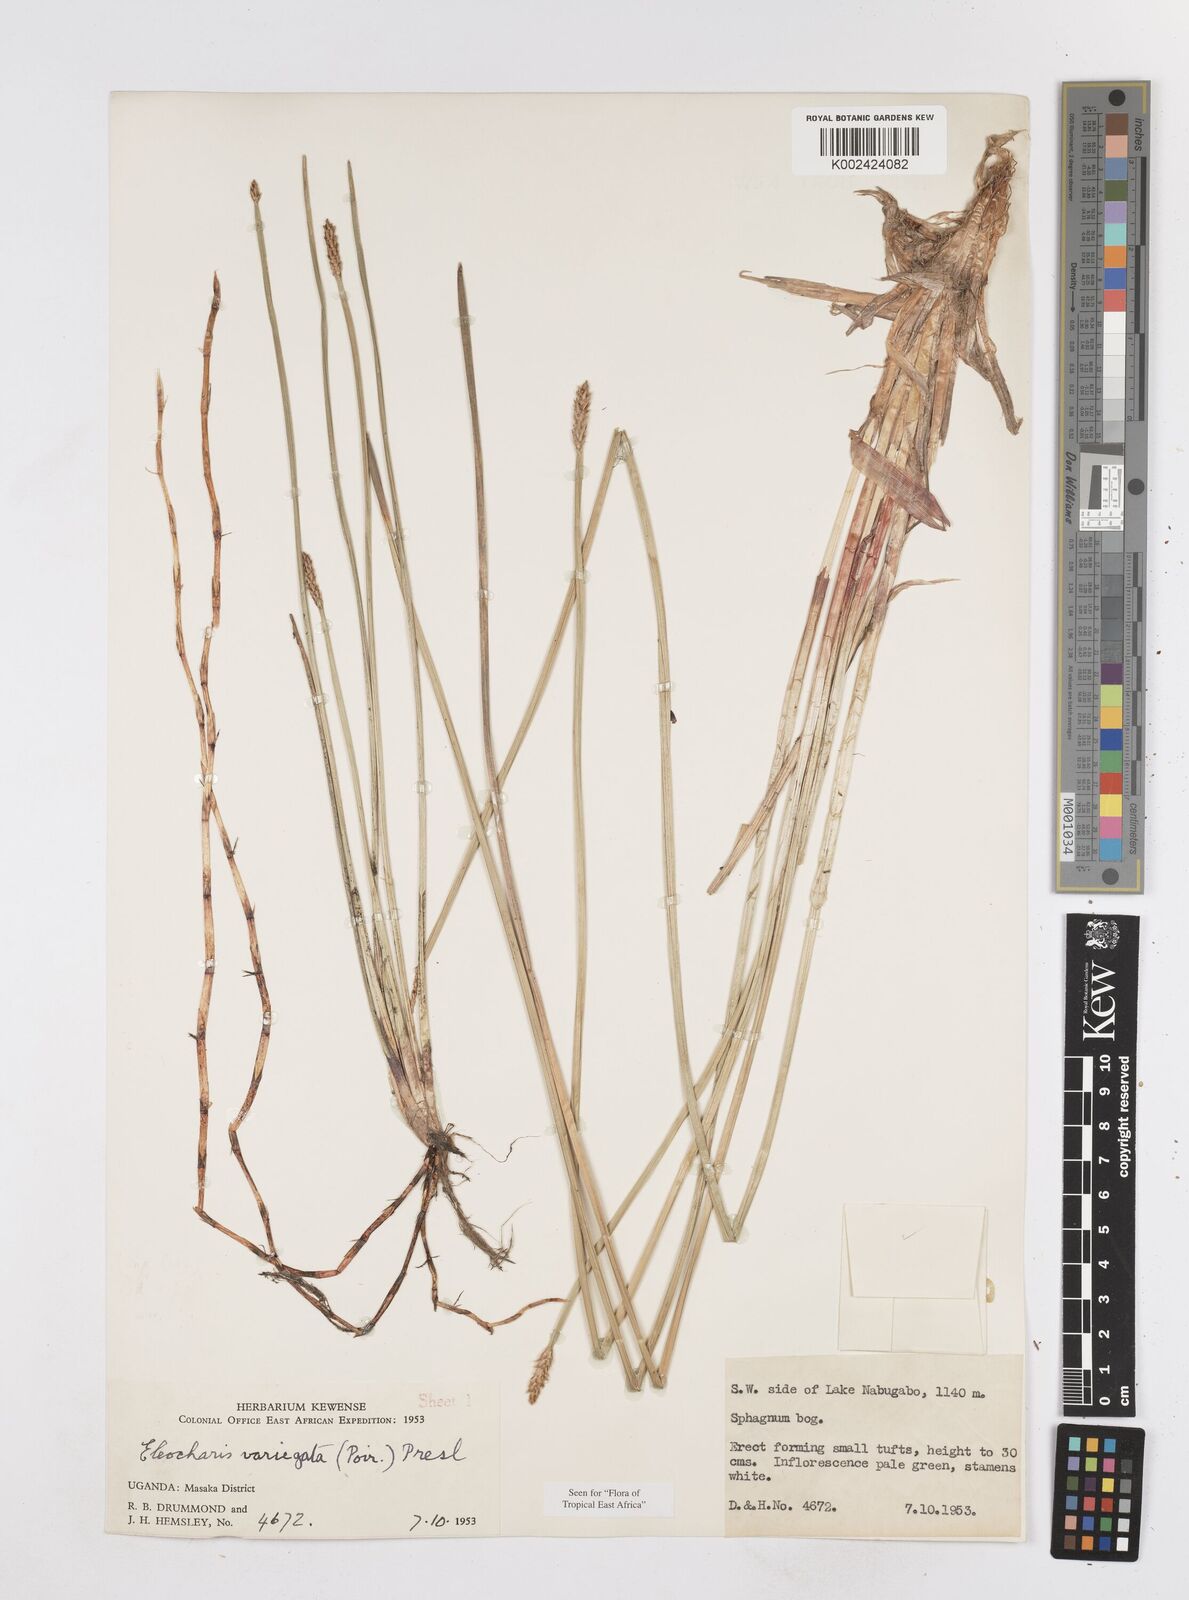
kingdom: Plantae
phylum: Tracheophyta
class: Liliopsida
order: Poales
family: Cyperaceae
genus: Eleocharis
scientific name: Eleocharis variegata
